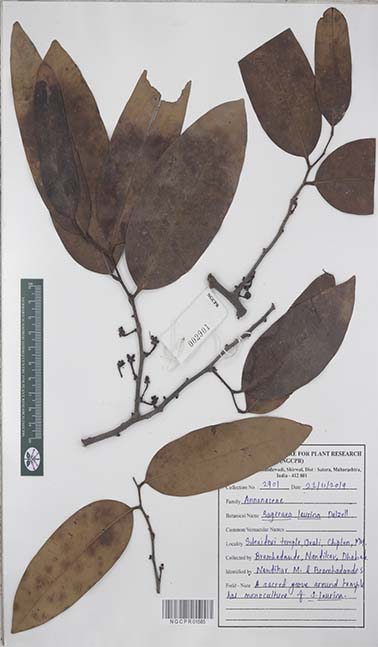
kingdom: Plantae
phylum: Tracheophyta
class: Magnoliopsida
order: Magnoliales
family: Annonaceae
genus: Sageraea
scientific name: Sageraea laurina
